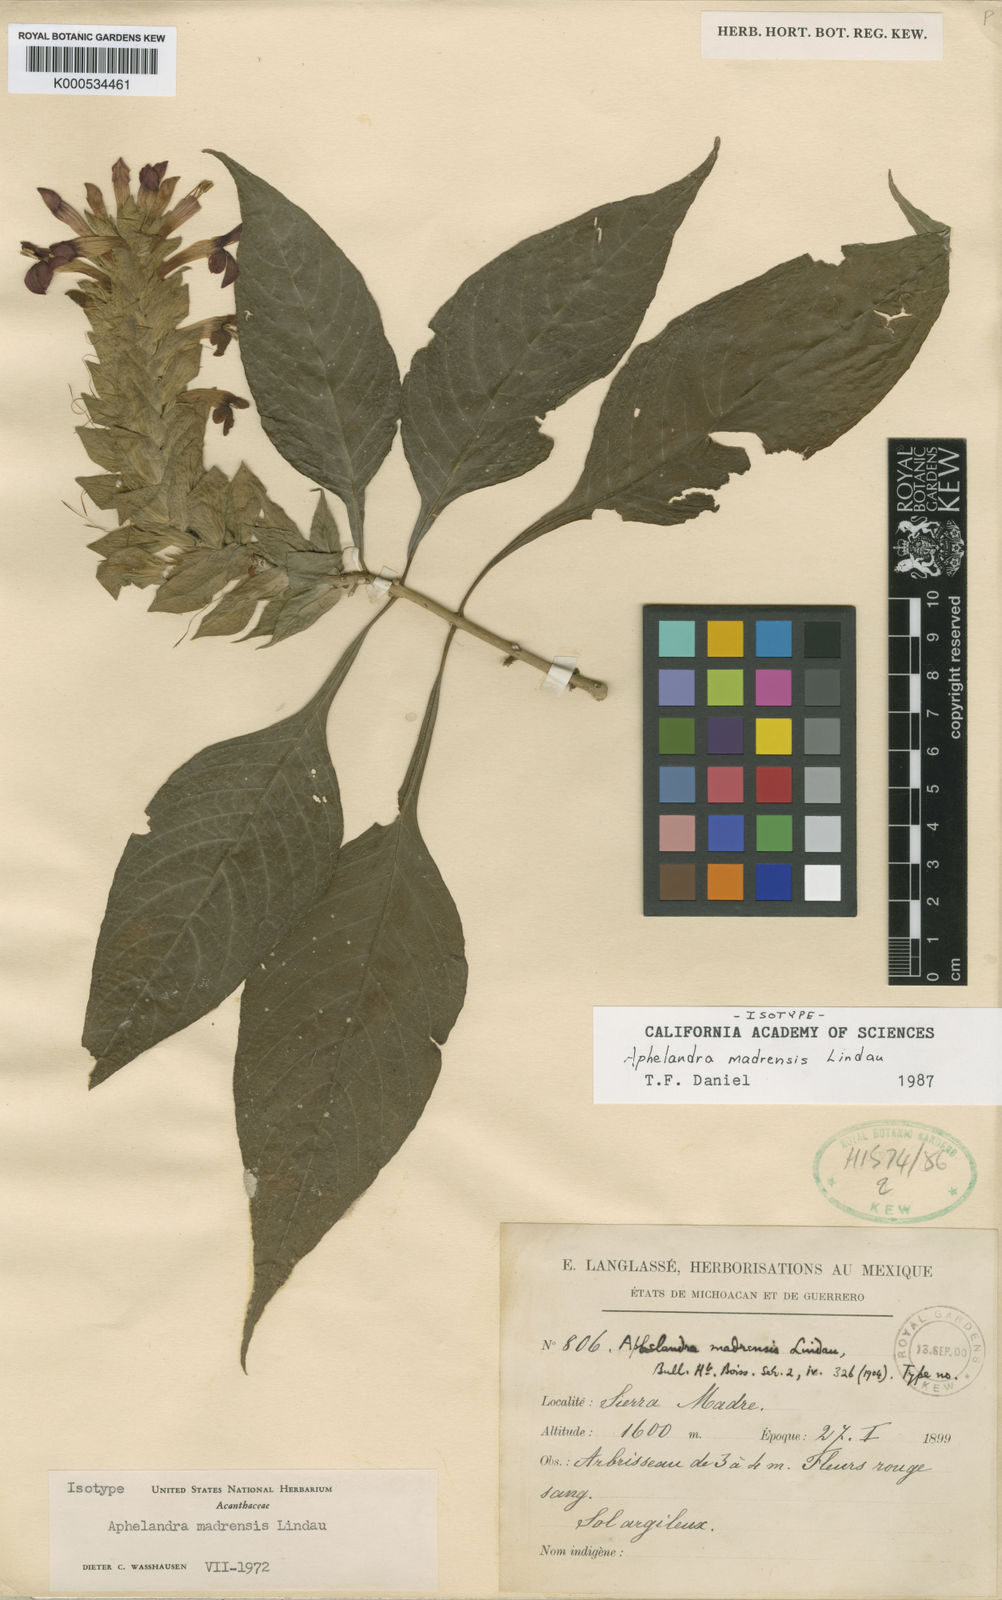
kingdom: Plantae
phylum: Tracheophyta
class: Magnoliopsida
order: Lamiales
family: Acanthaceae
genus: Aphelandra
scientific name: Aphelandra madrensis
